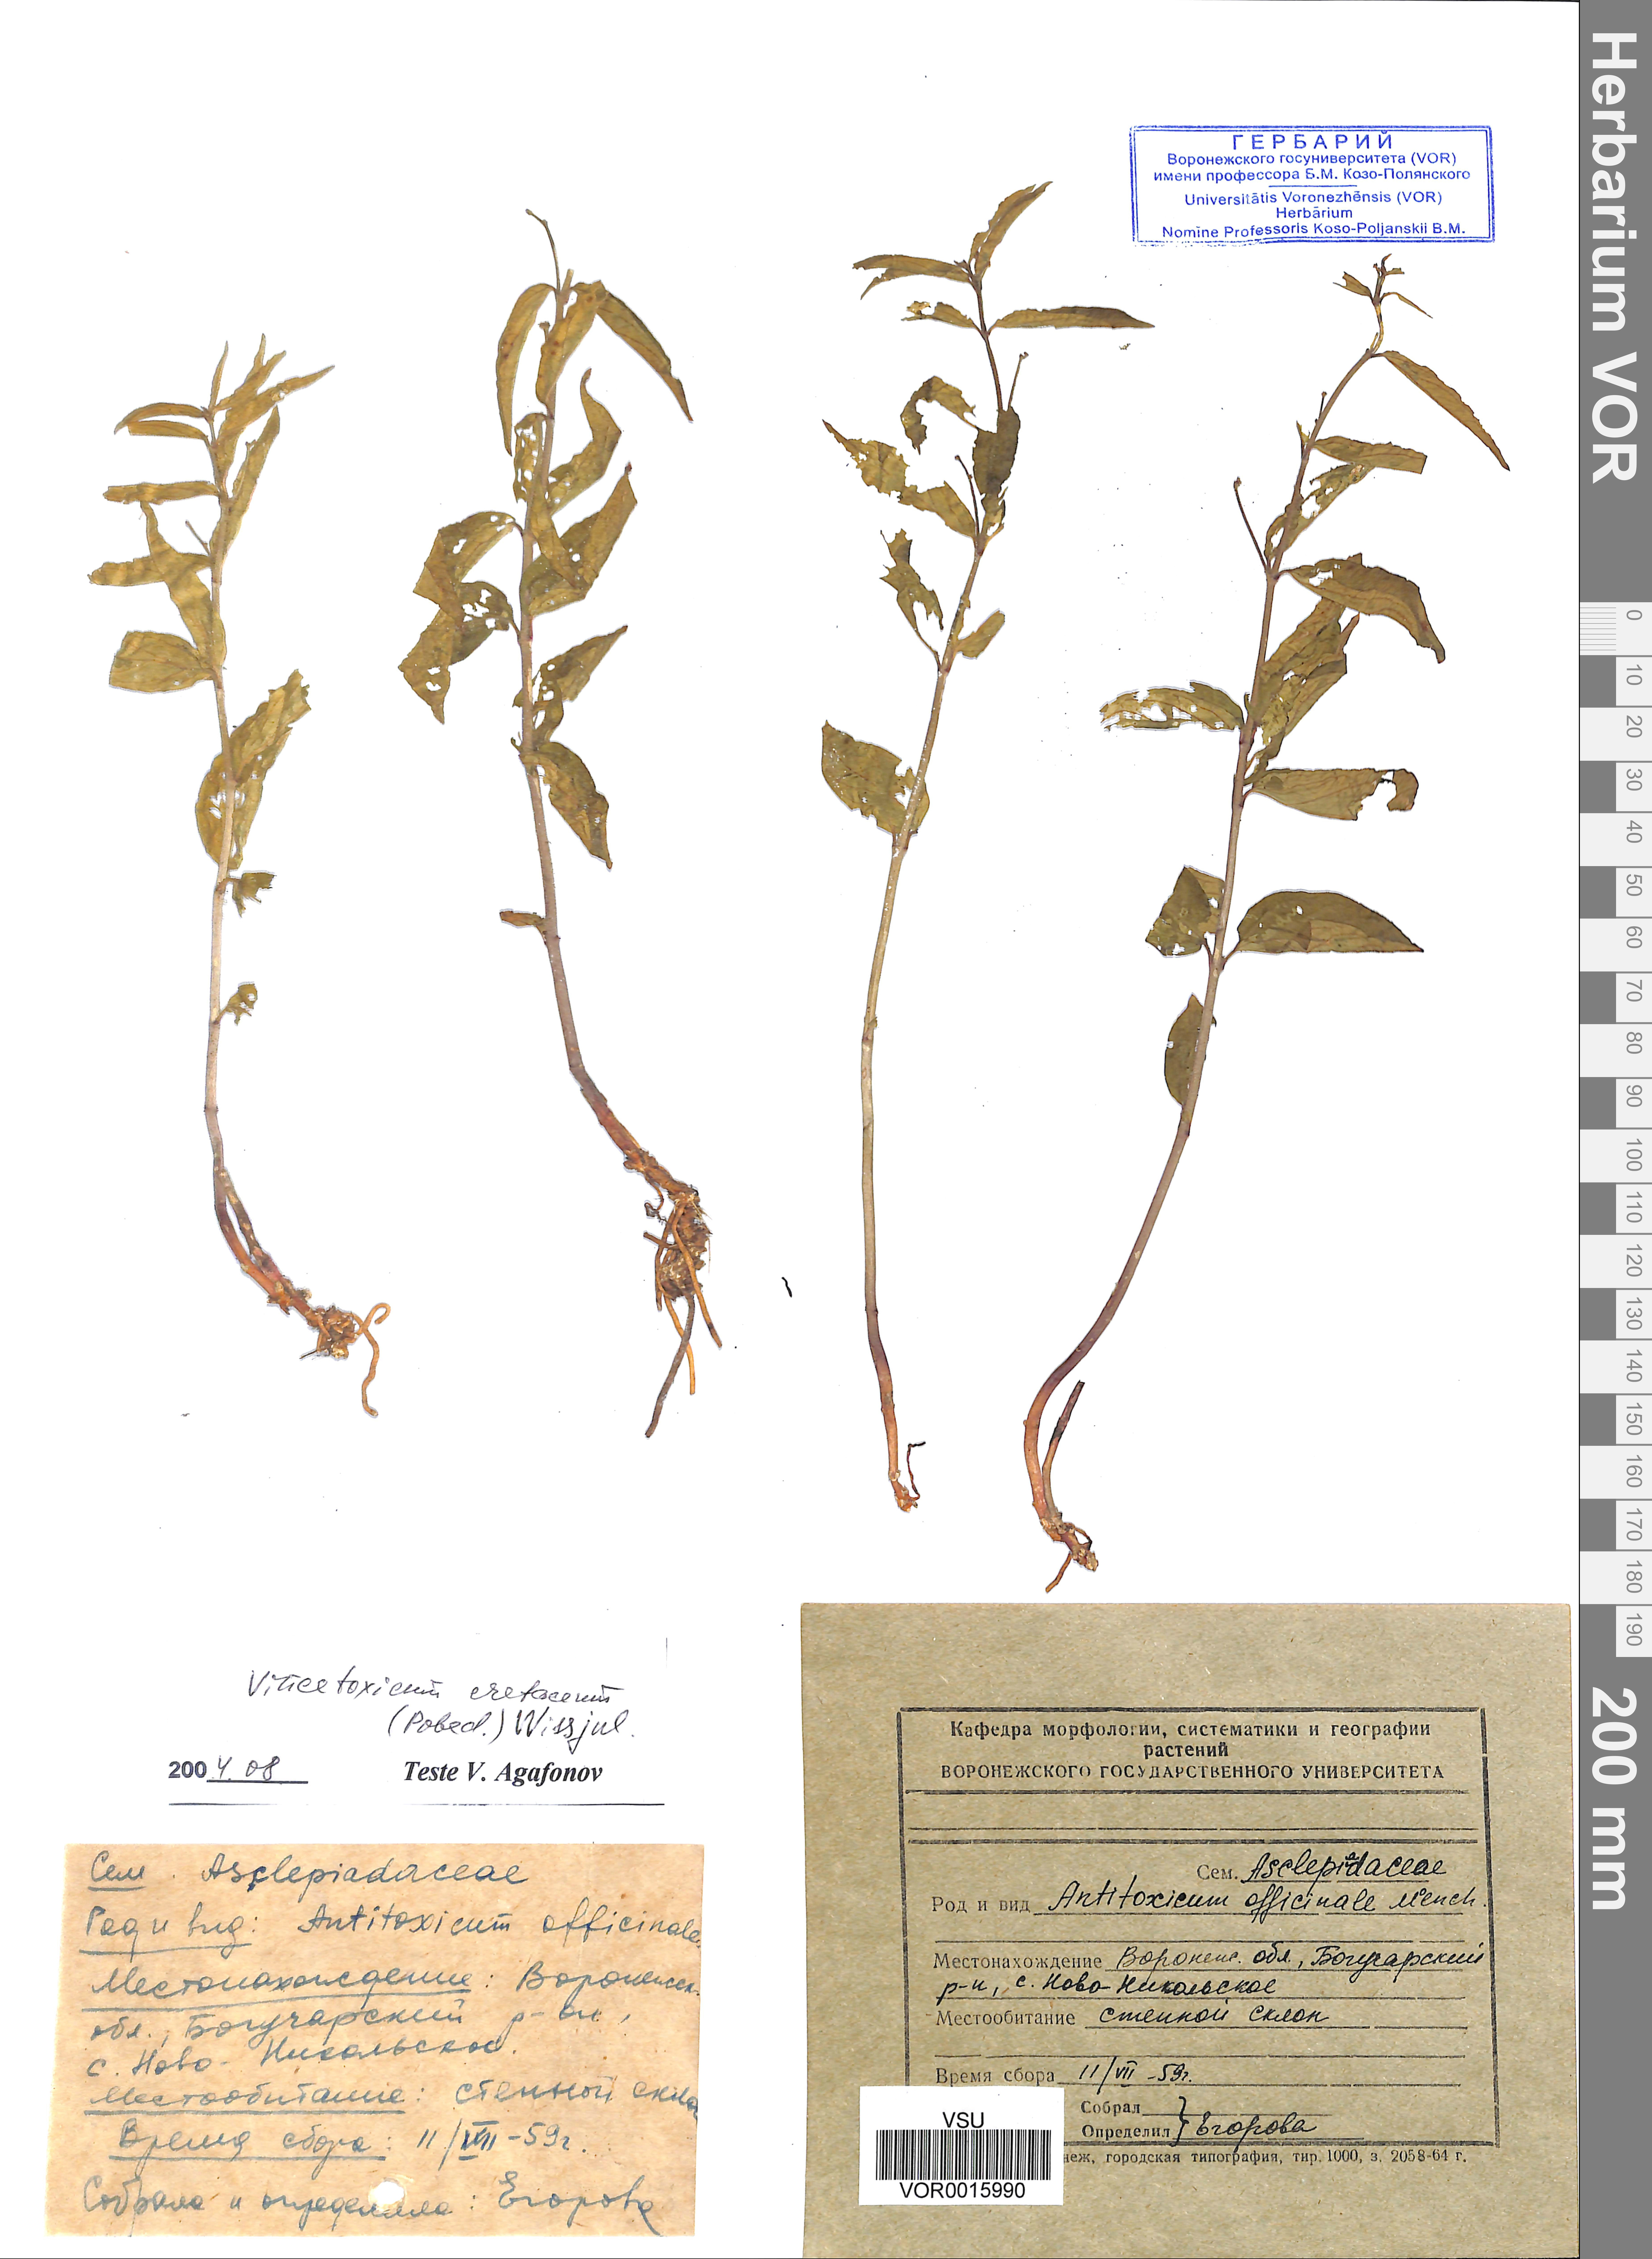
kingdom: Plantae
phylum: Tracheophyta
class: Magnoliopsida
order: Gentianales
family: Apocynaceae
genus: Vincetoxicum
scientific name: Vincetoxicum hirundinaria
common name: White swallowwort
